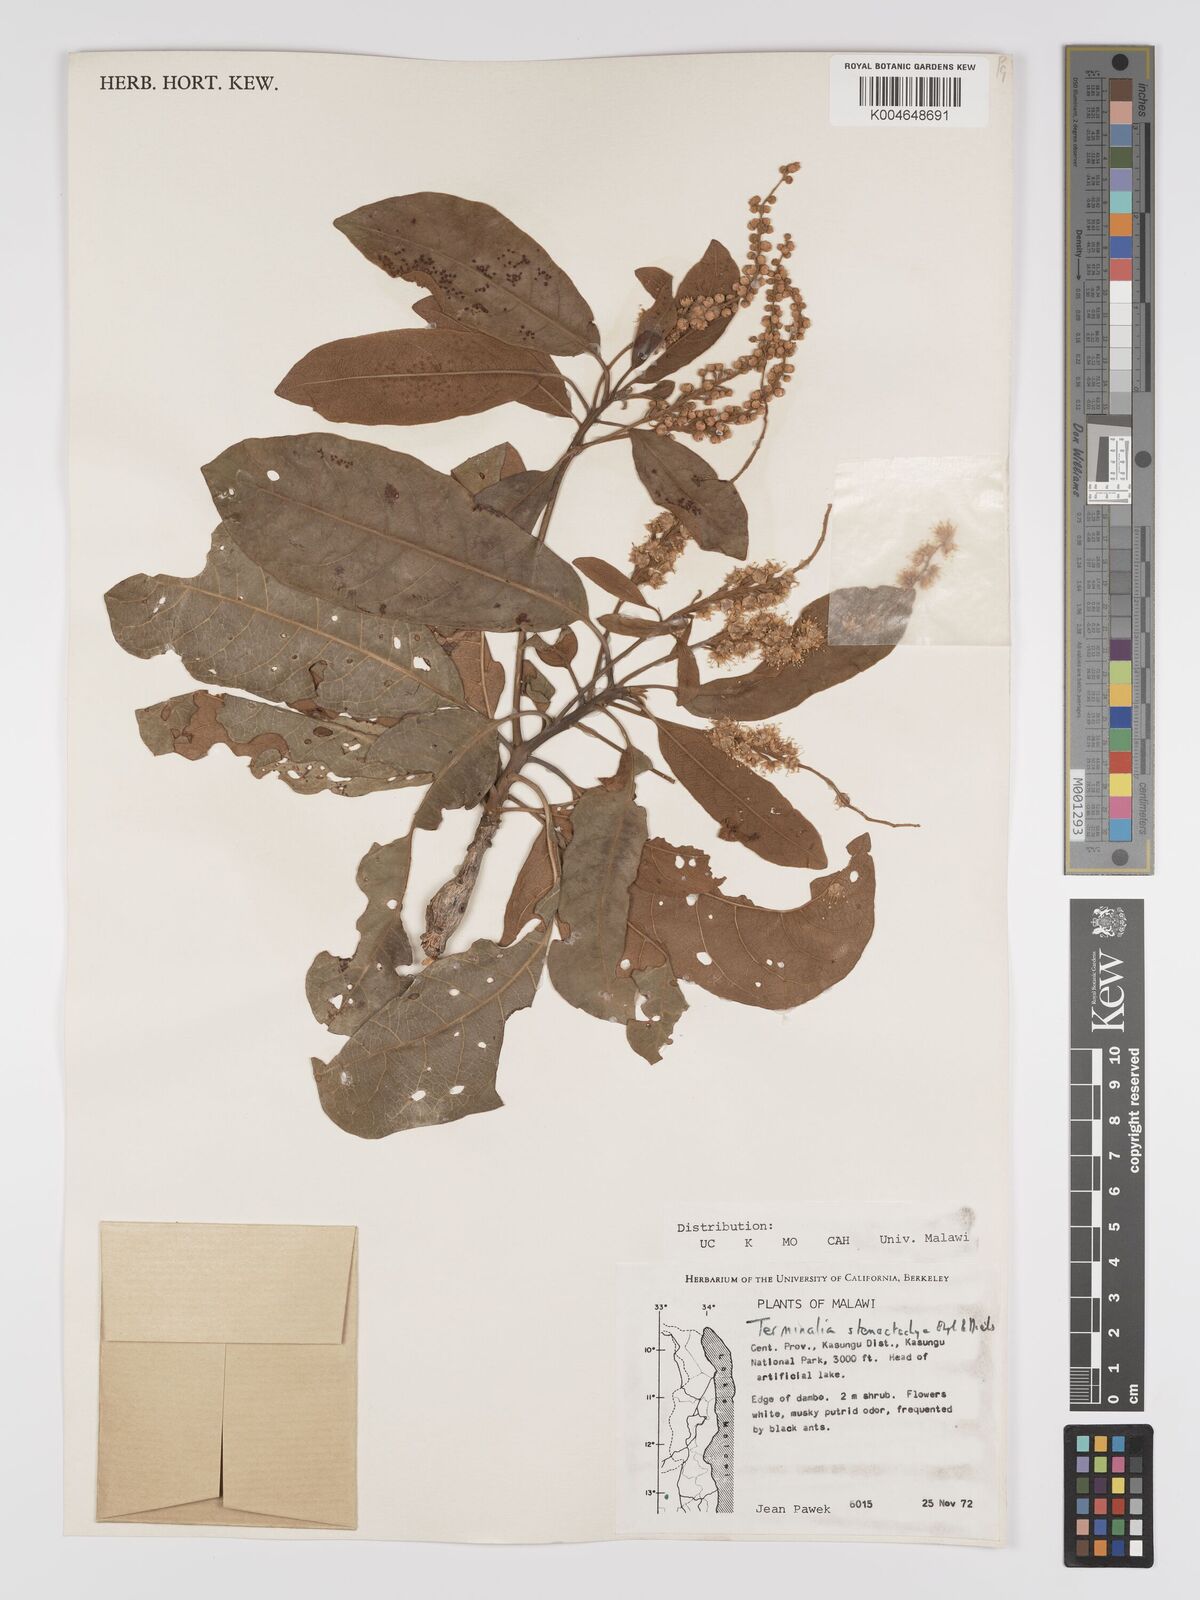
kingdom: Plantae
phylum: Tracheophyta
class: Magnoliopsida
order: Myrtales
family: Combretaceae
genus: Terminalia
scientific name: Terminalia stenostachya
